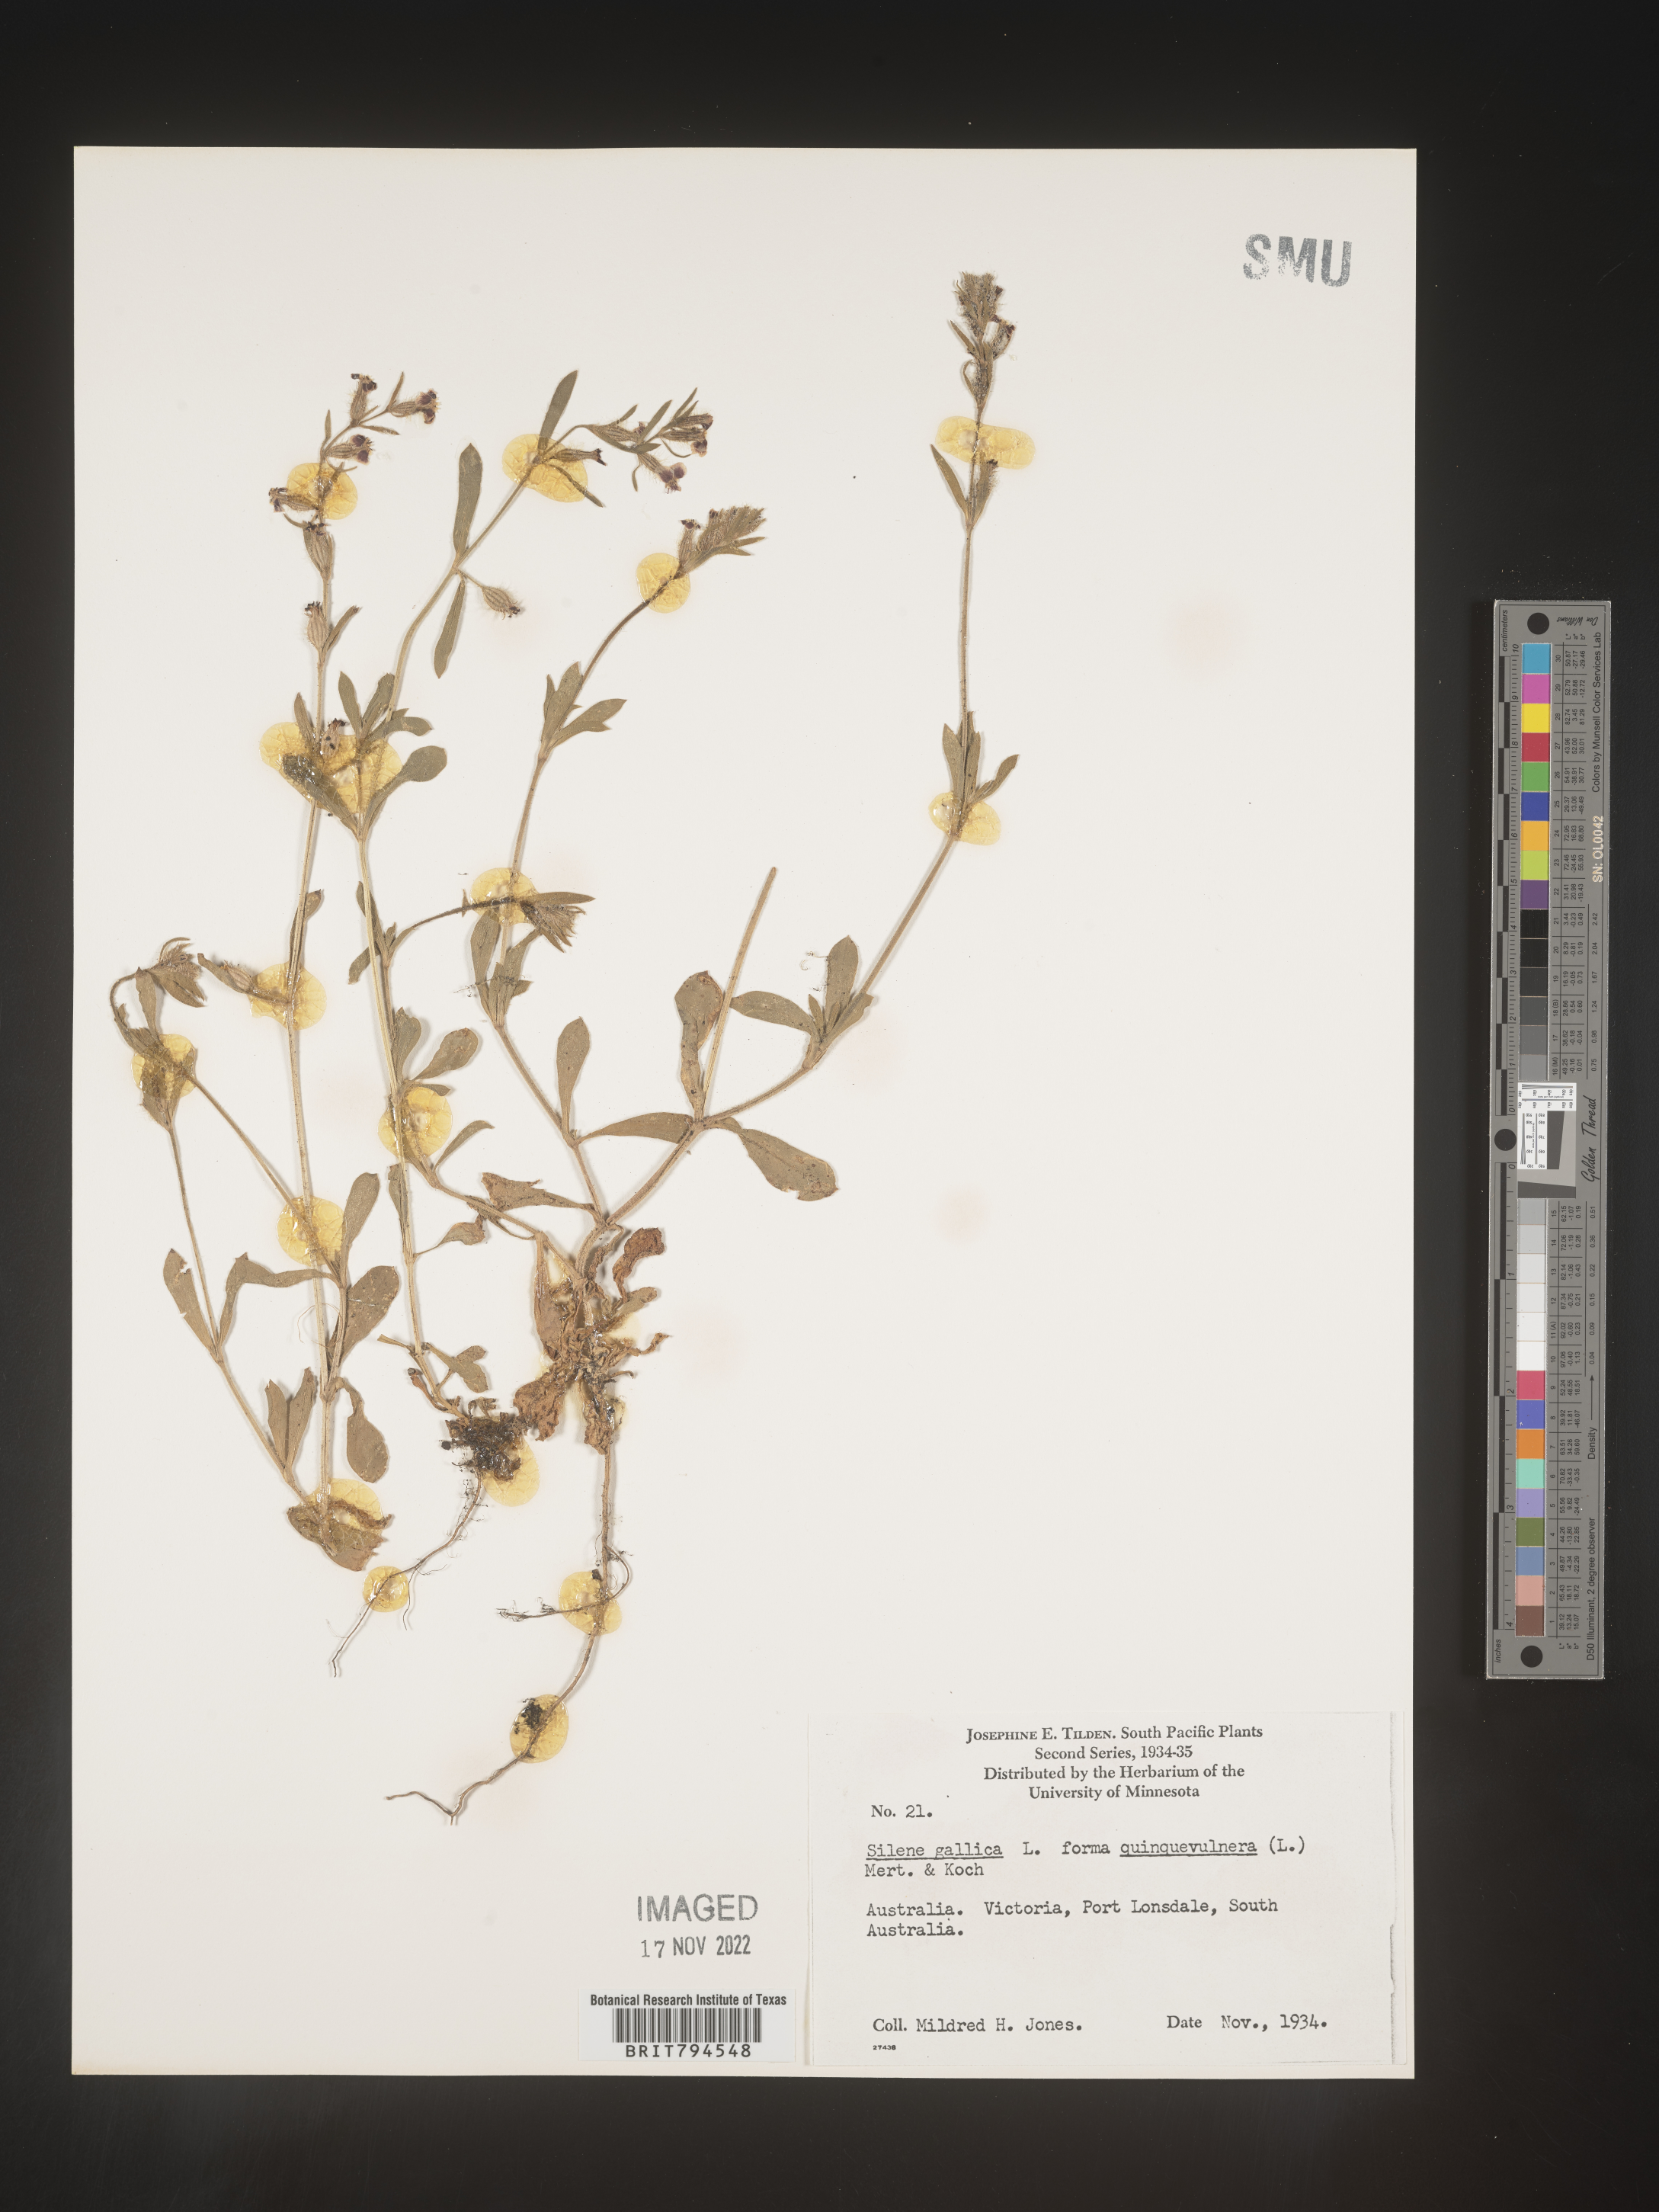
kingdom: Plantae
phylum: Tracheophyta
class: Magnoliopsida
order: Caryophyllales
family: Caryophyllaceae
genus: Silene
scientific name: Silene gallica
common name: Small-flowered catchfly
